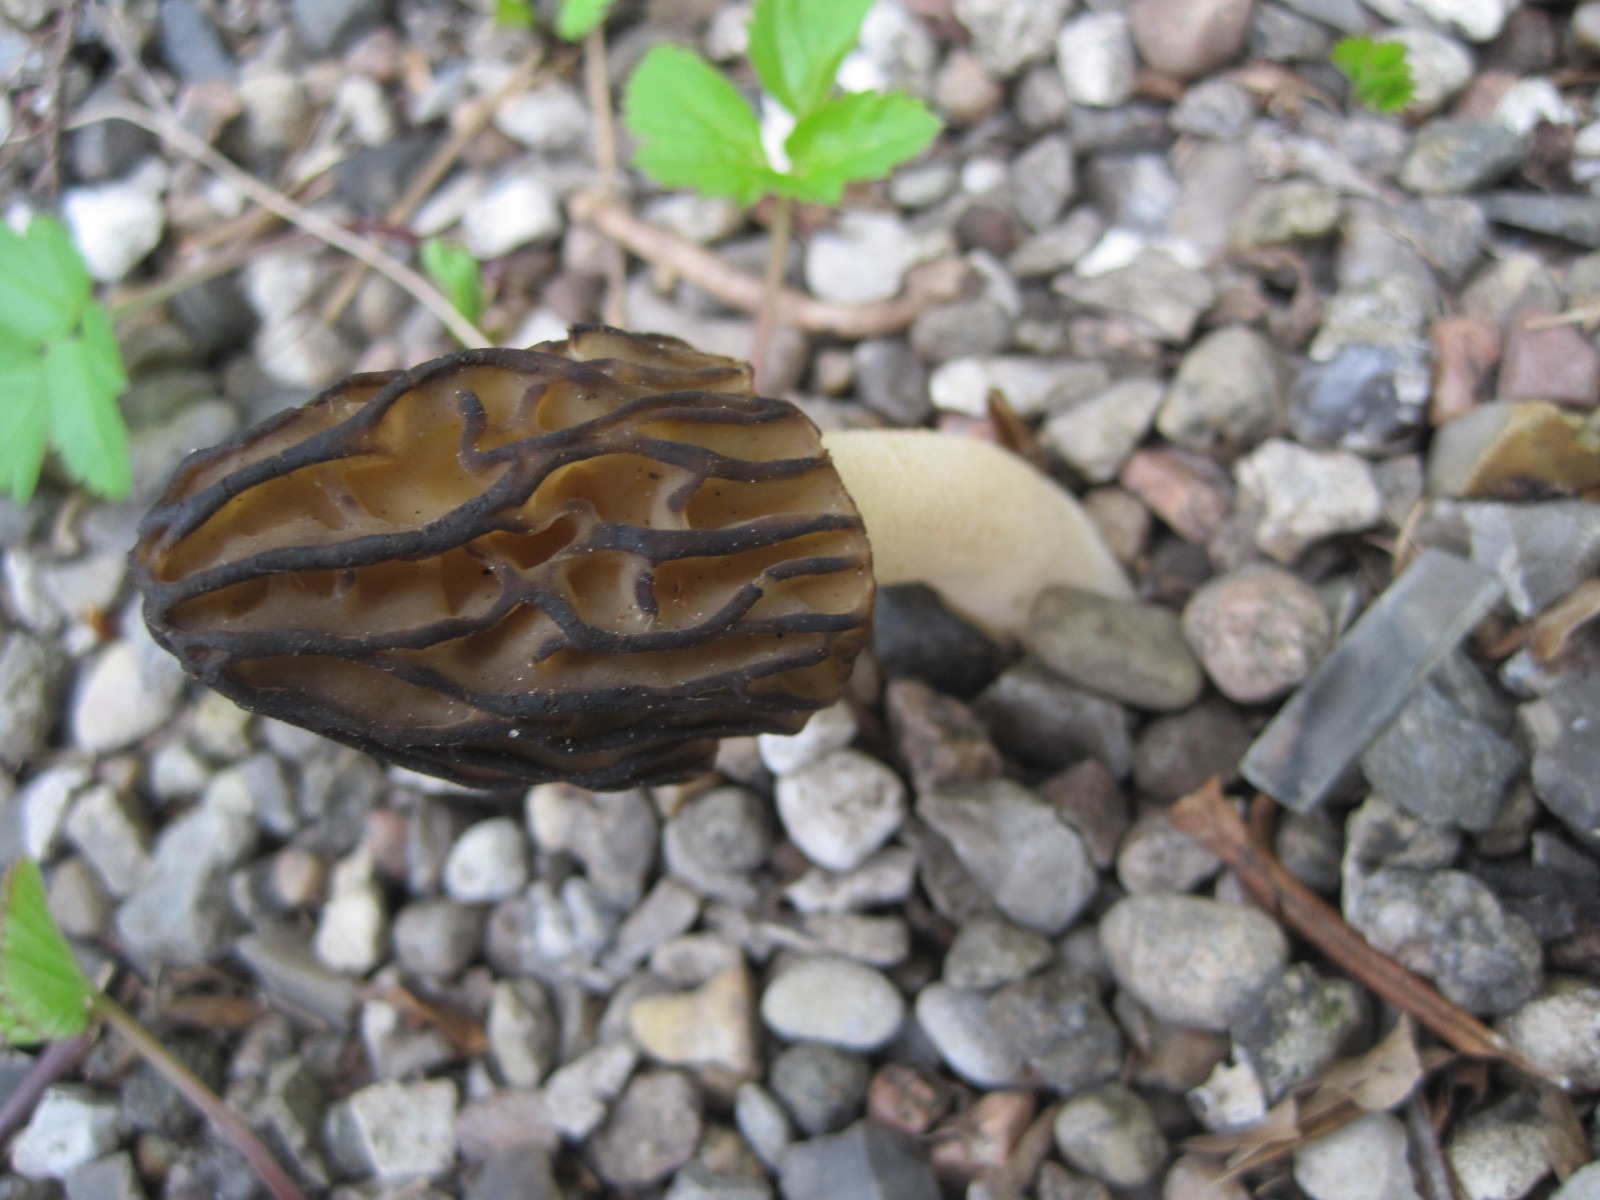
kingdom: Fungi
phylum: Ascomycota
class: Pezizomycetes
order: Pezizales
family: Morchellaceae
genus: Morchella
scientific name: Morchella semilibera
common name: hætte-morkel
